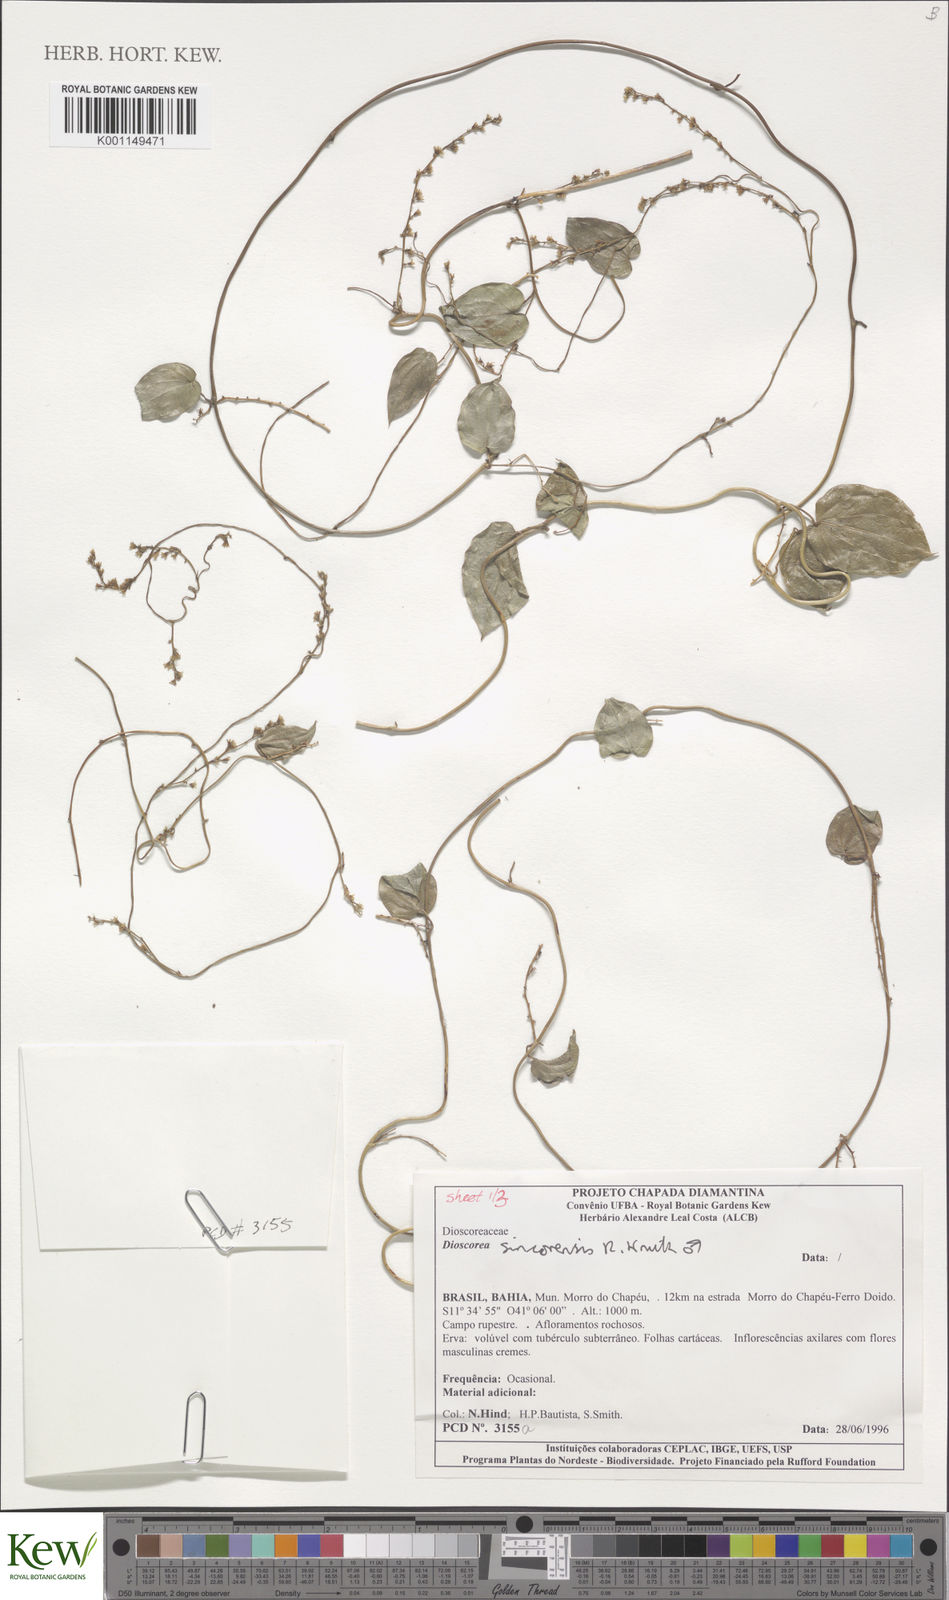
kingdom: Plantae
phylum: Tracheophyta
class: Liliopsida
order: Dioscoreales
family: Dioscoreaceae
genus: Dioscorea
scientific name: Dioscorea sincorensis
